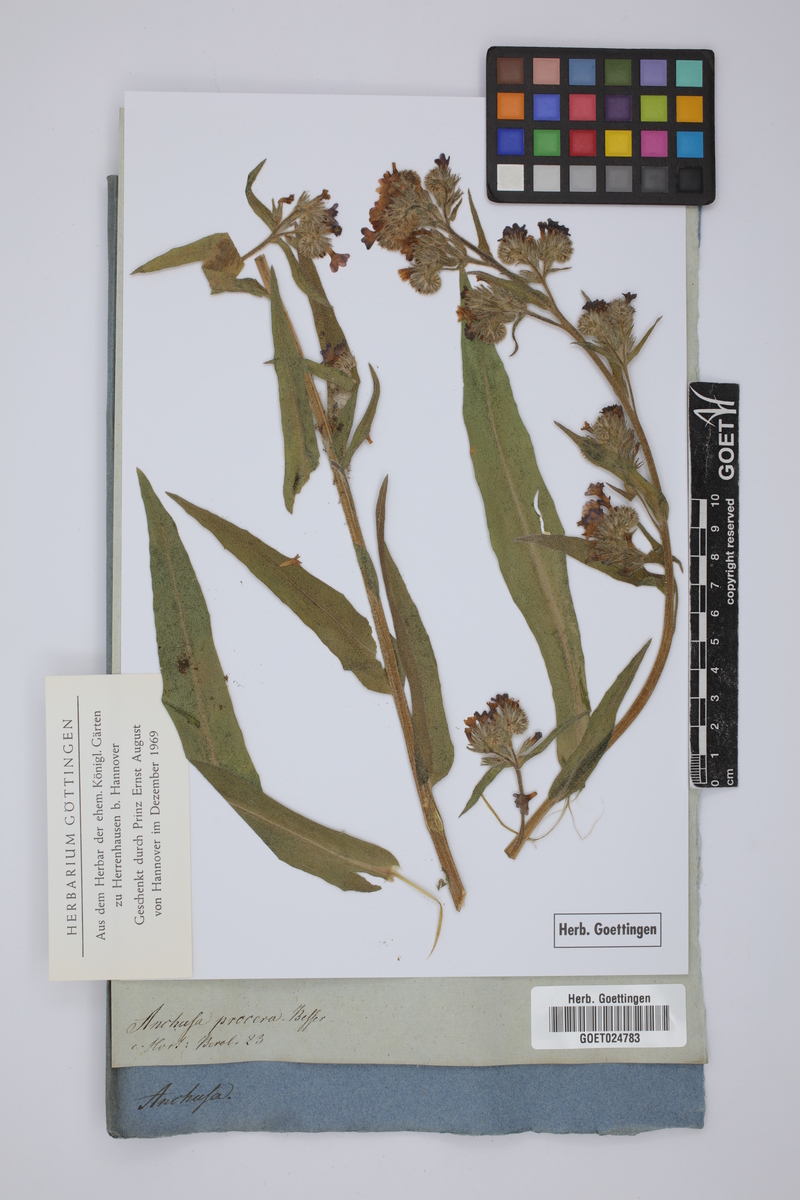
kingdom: Plantae
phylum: Tracheophyta
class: Magnoliopsida
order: Boraginales
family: Boraginaceae
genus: Anchusa
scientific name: Anchusa procera
